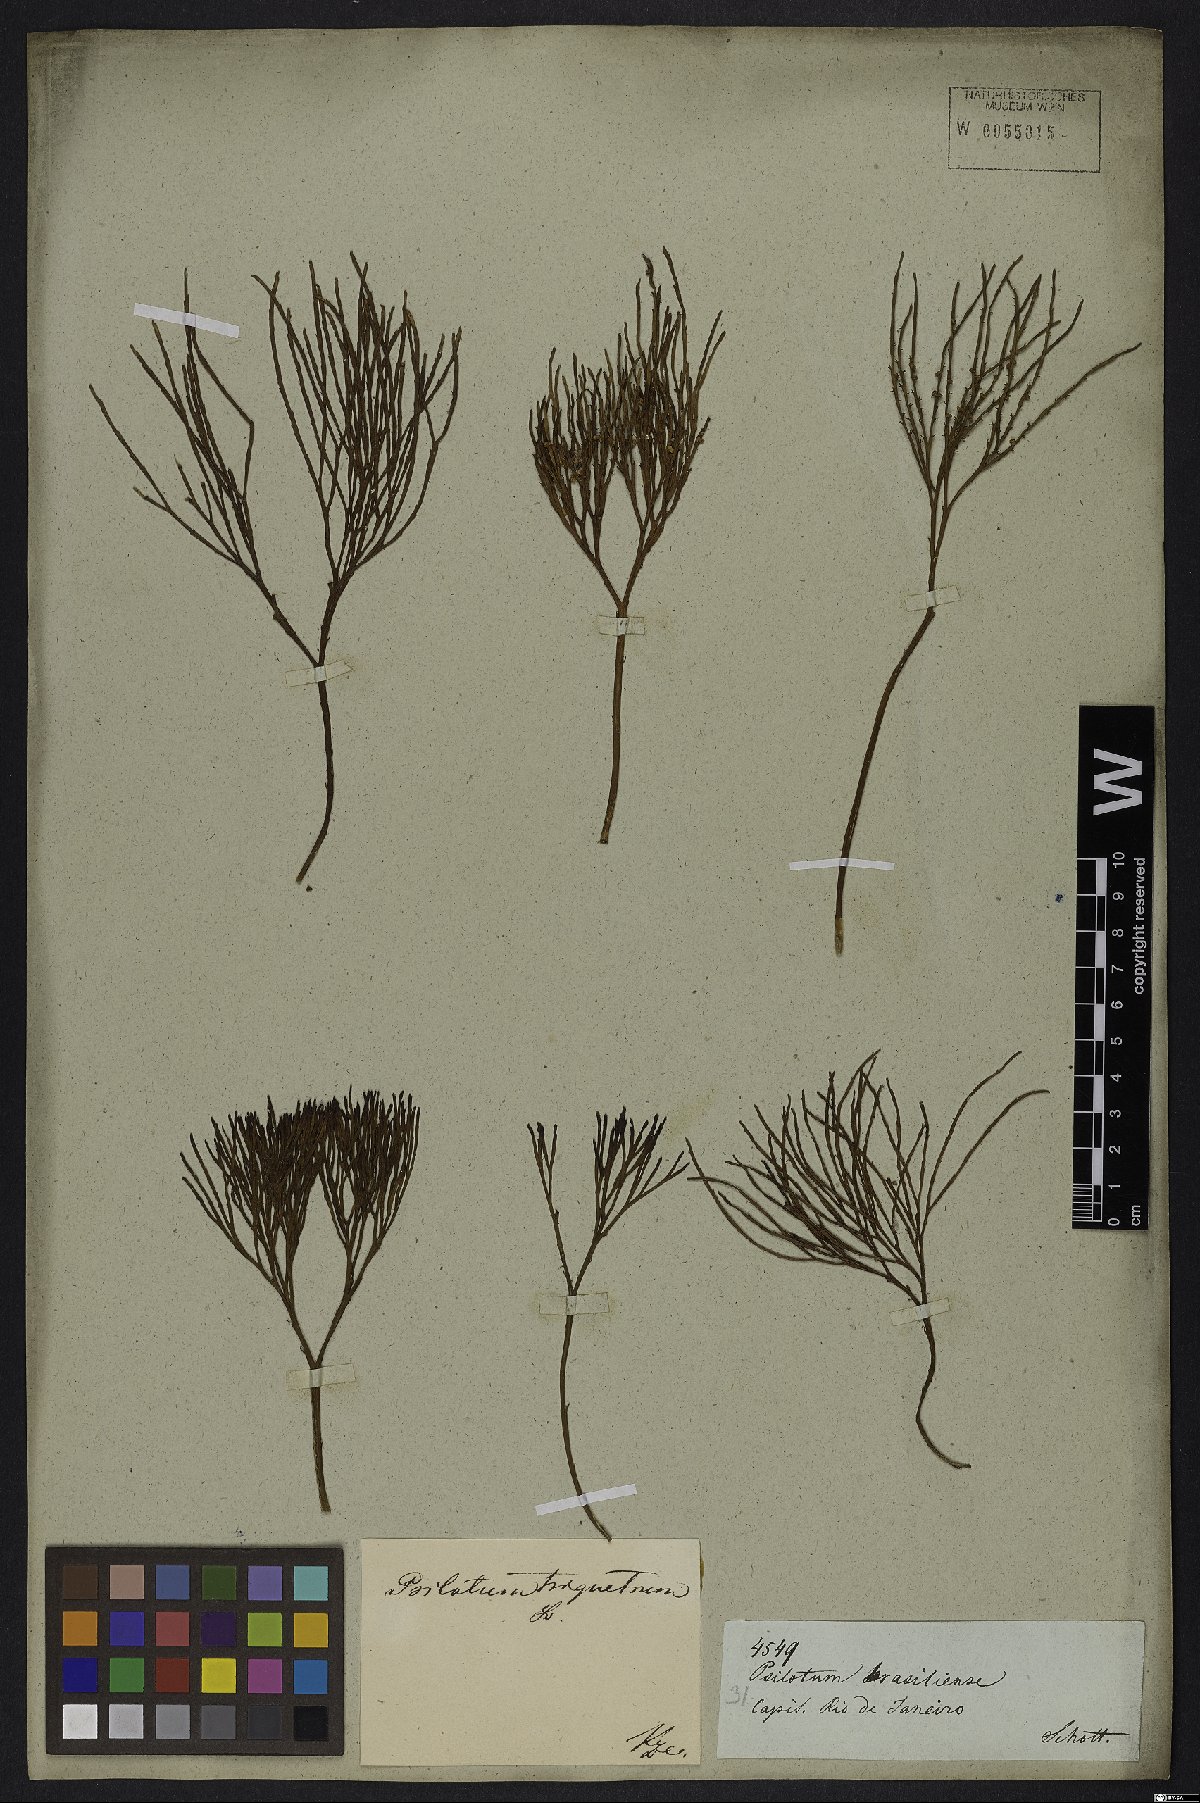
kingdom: Plantae
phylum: Tracheophyta
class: Polypodiopsida
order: Psilotales
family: Psilotaceae
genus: Psilotum
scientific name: Psilotum nudum
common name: Skeleton fork fern
